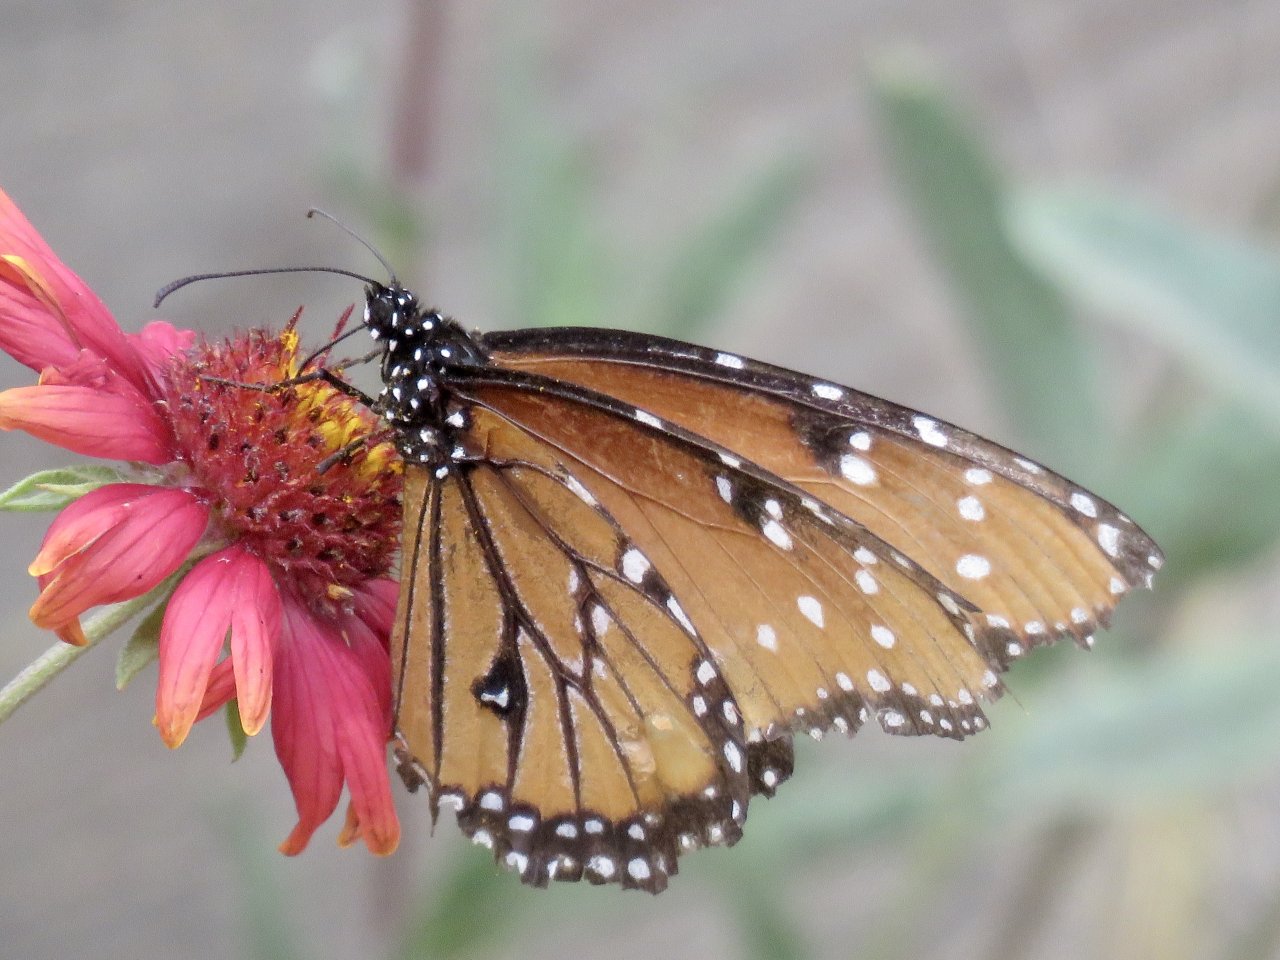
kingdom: Animalia
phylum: Arthropoda
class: Insecta
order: Lepidoptera
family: Nymphalidae
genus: Danaus
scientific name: Danaus gilippus
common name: Queen
